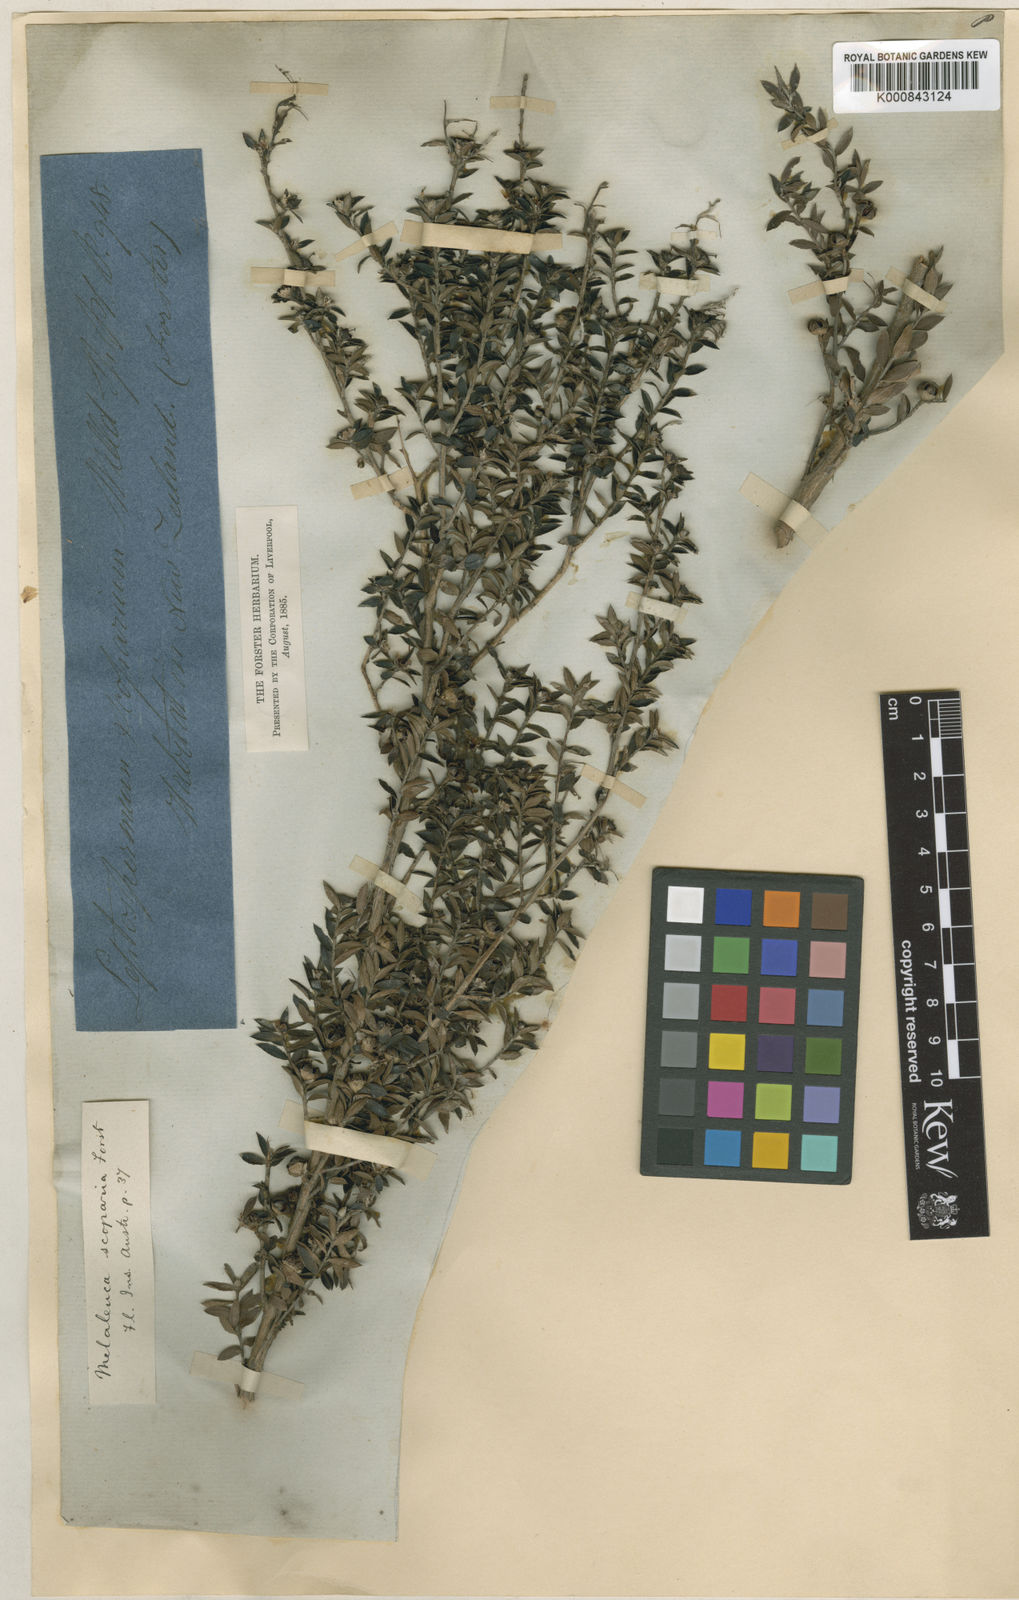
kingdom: Plantae
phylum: Tracheophyta
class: Magnoliopsida
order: Myrtales
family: Myrtaceae
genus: Leptospermum
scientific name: Leptospermum scoparium
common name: Broom tea-tree
